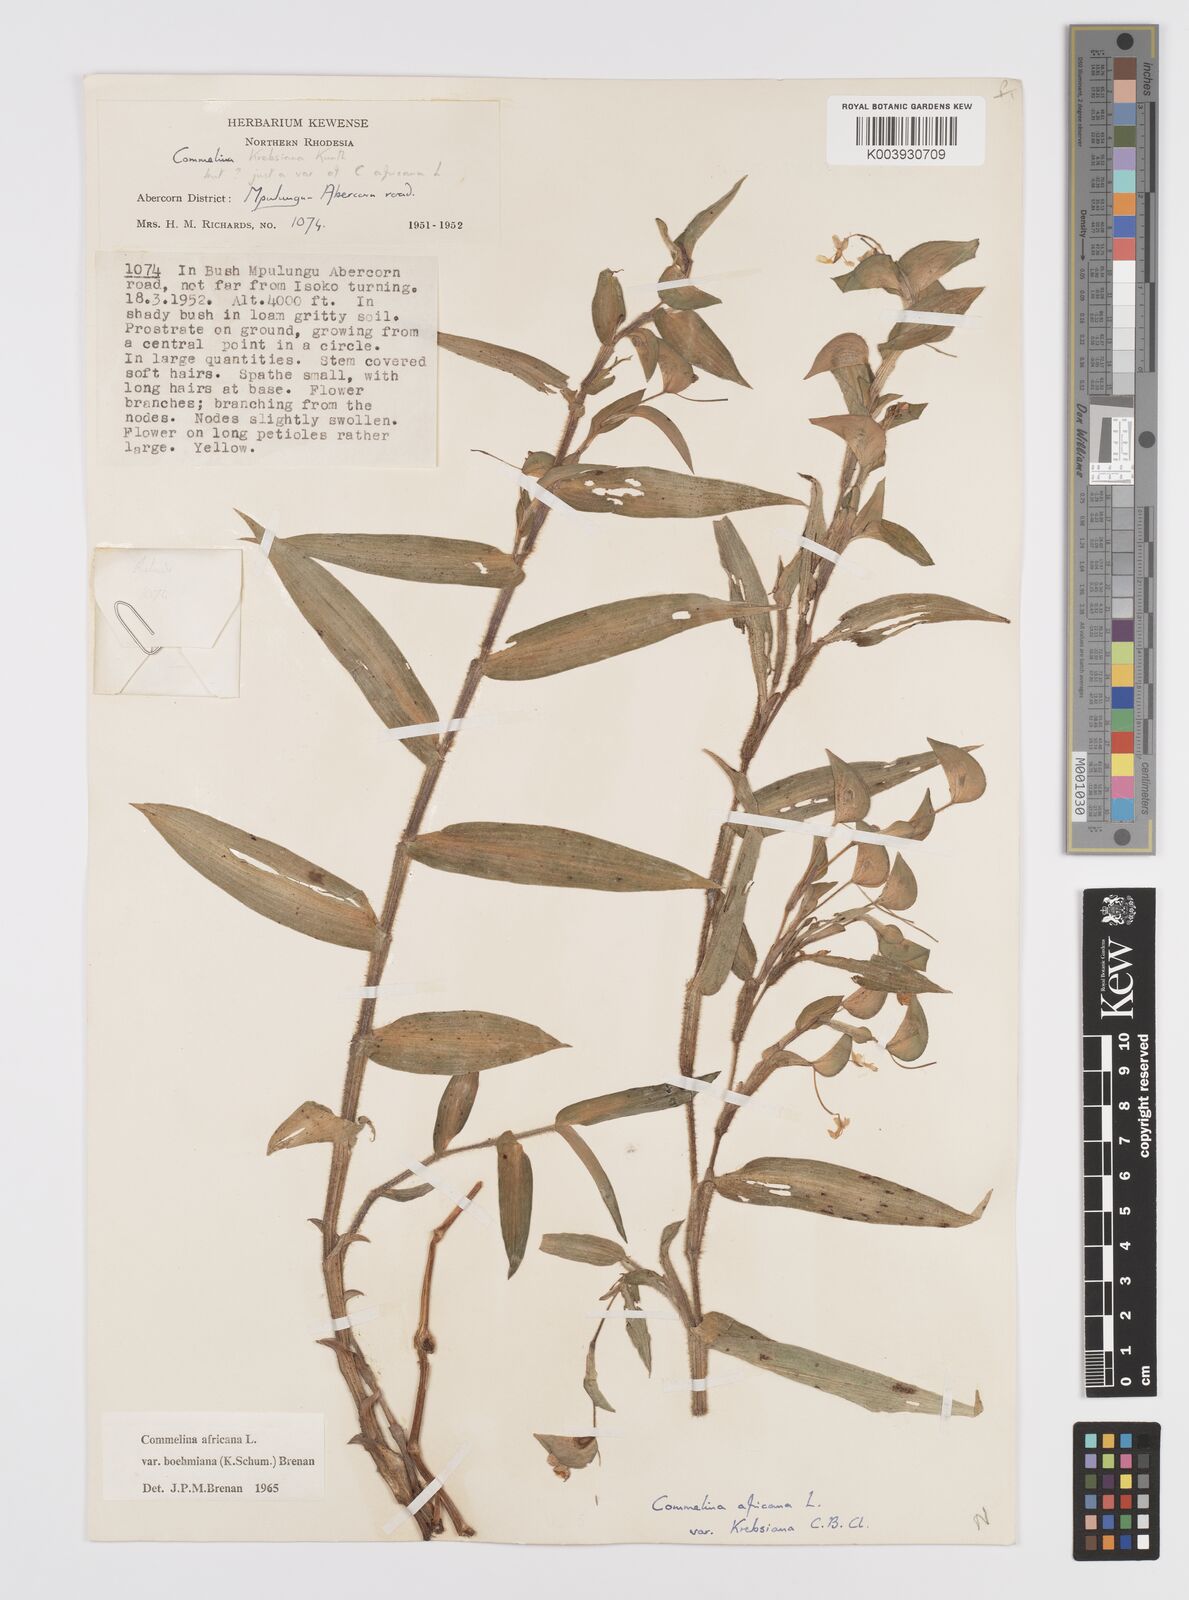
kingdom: Plantae
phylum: Tracheophyta
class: Liliopsida
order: Commelinales
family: Commelinaceae
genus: Commelina
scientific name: Commelina africana
